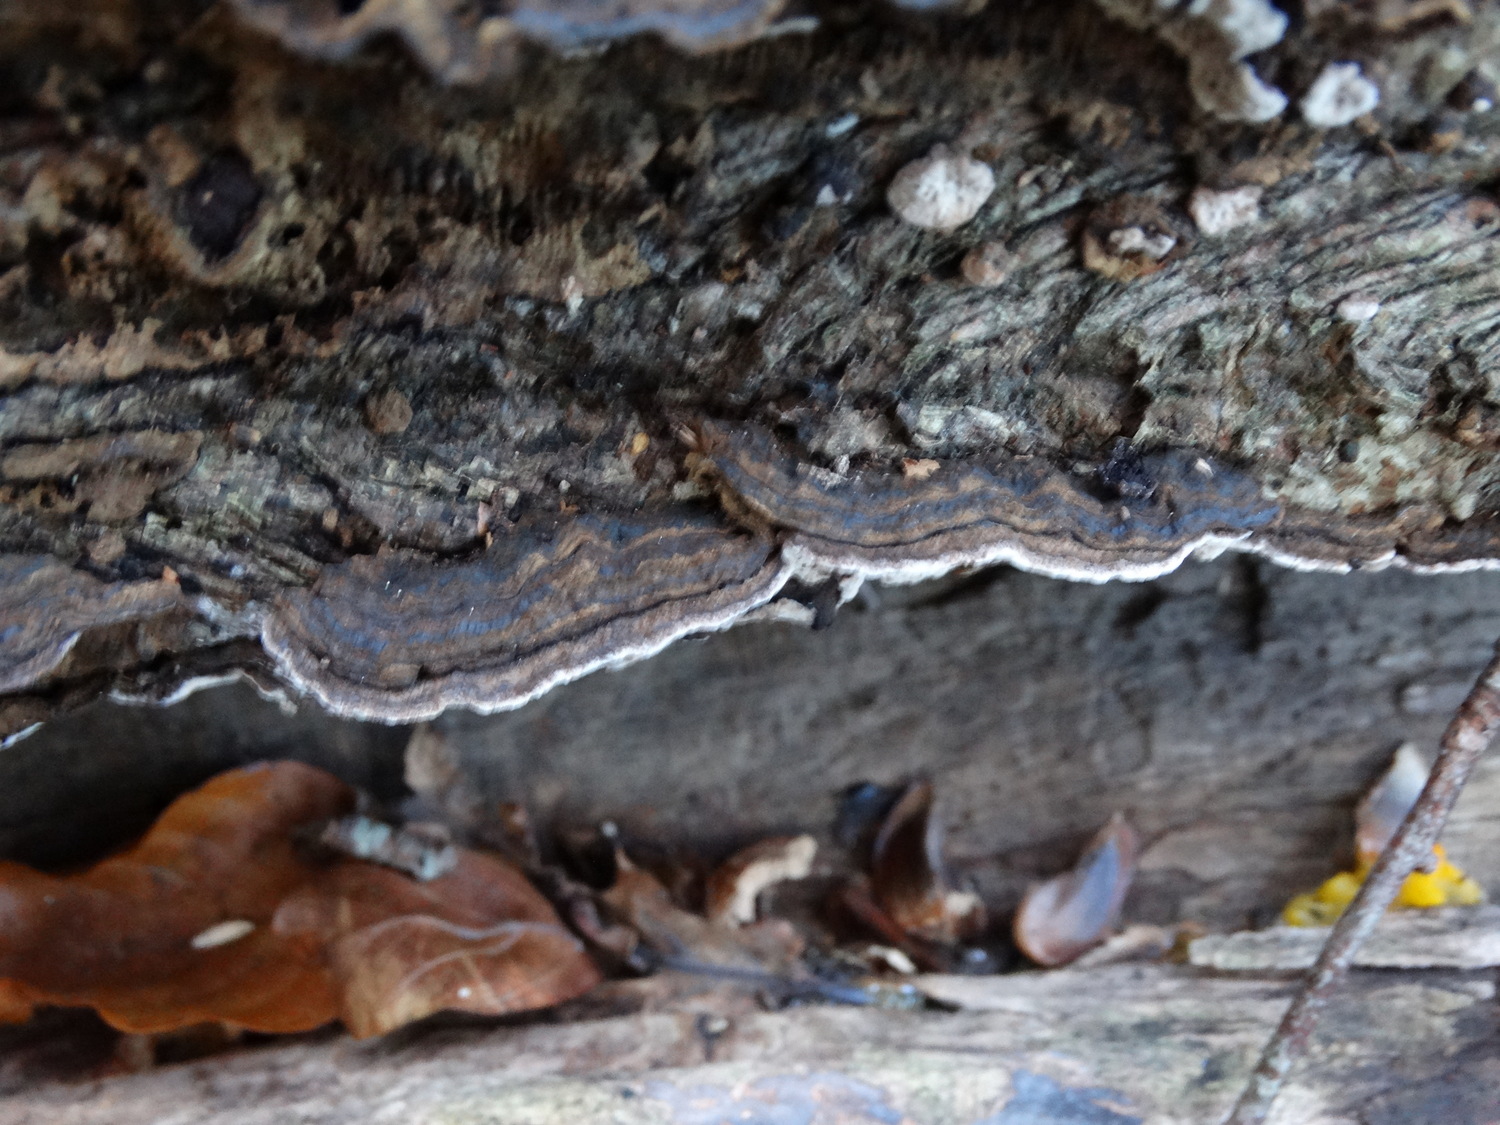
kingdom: Fungi
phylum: Basidiomycota
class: Agaricomycetes
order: Polyporales
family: Polyporaceae
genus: Podofomes
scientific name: Podofomes mollis
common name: blød begporesvamp
